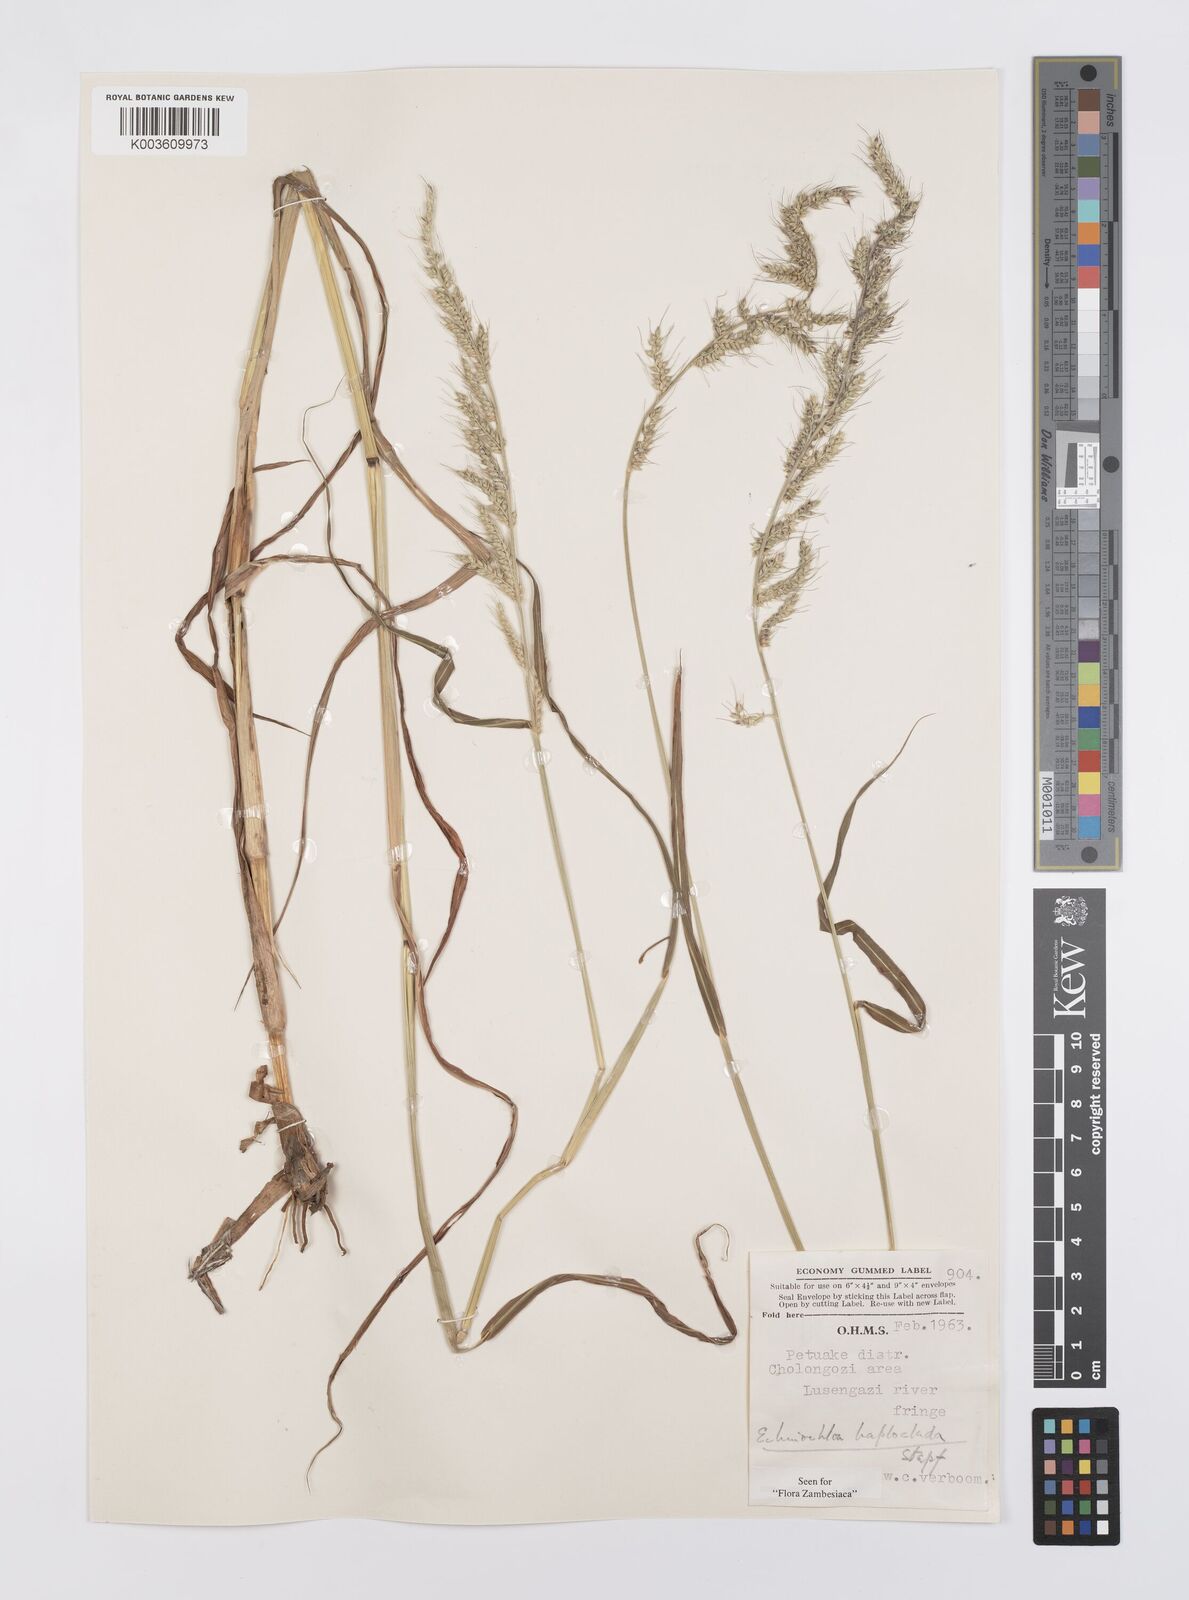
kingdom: Plantae
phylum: Tracheophyta
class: Liliopsida
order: Poales
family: Poaceae
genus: Echinochloa
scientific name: Echinochloa haploclada
